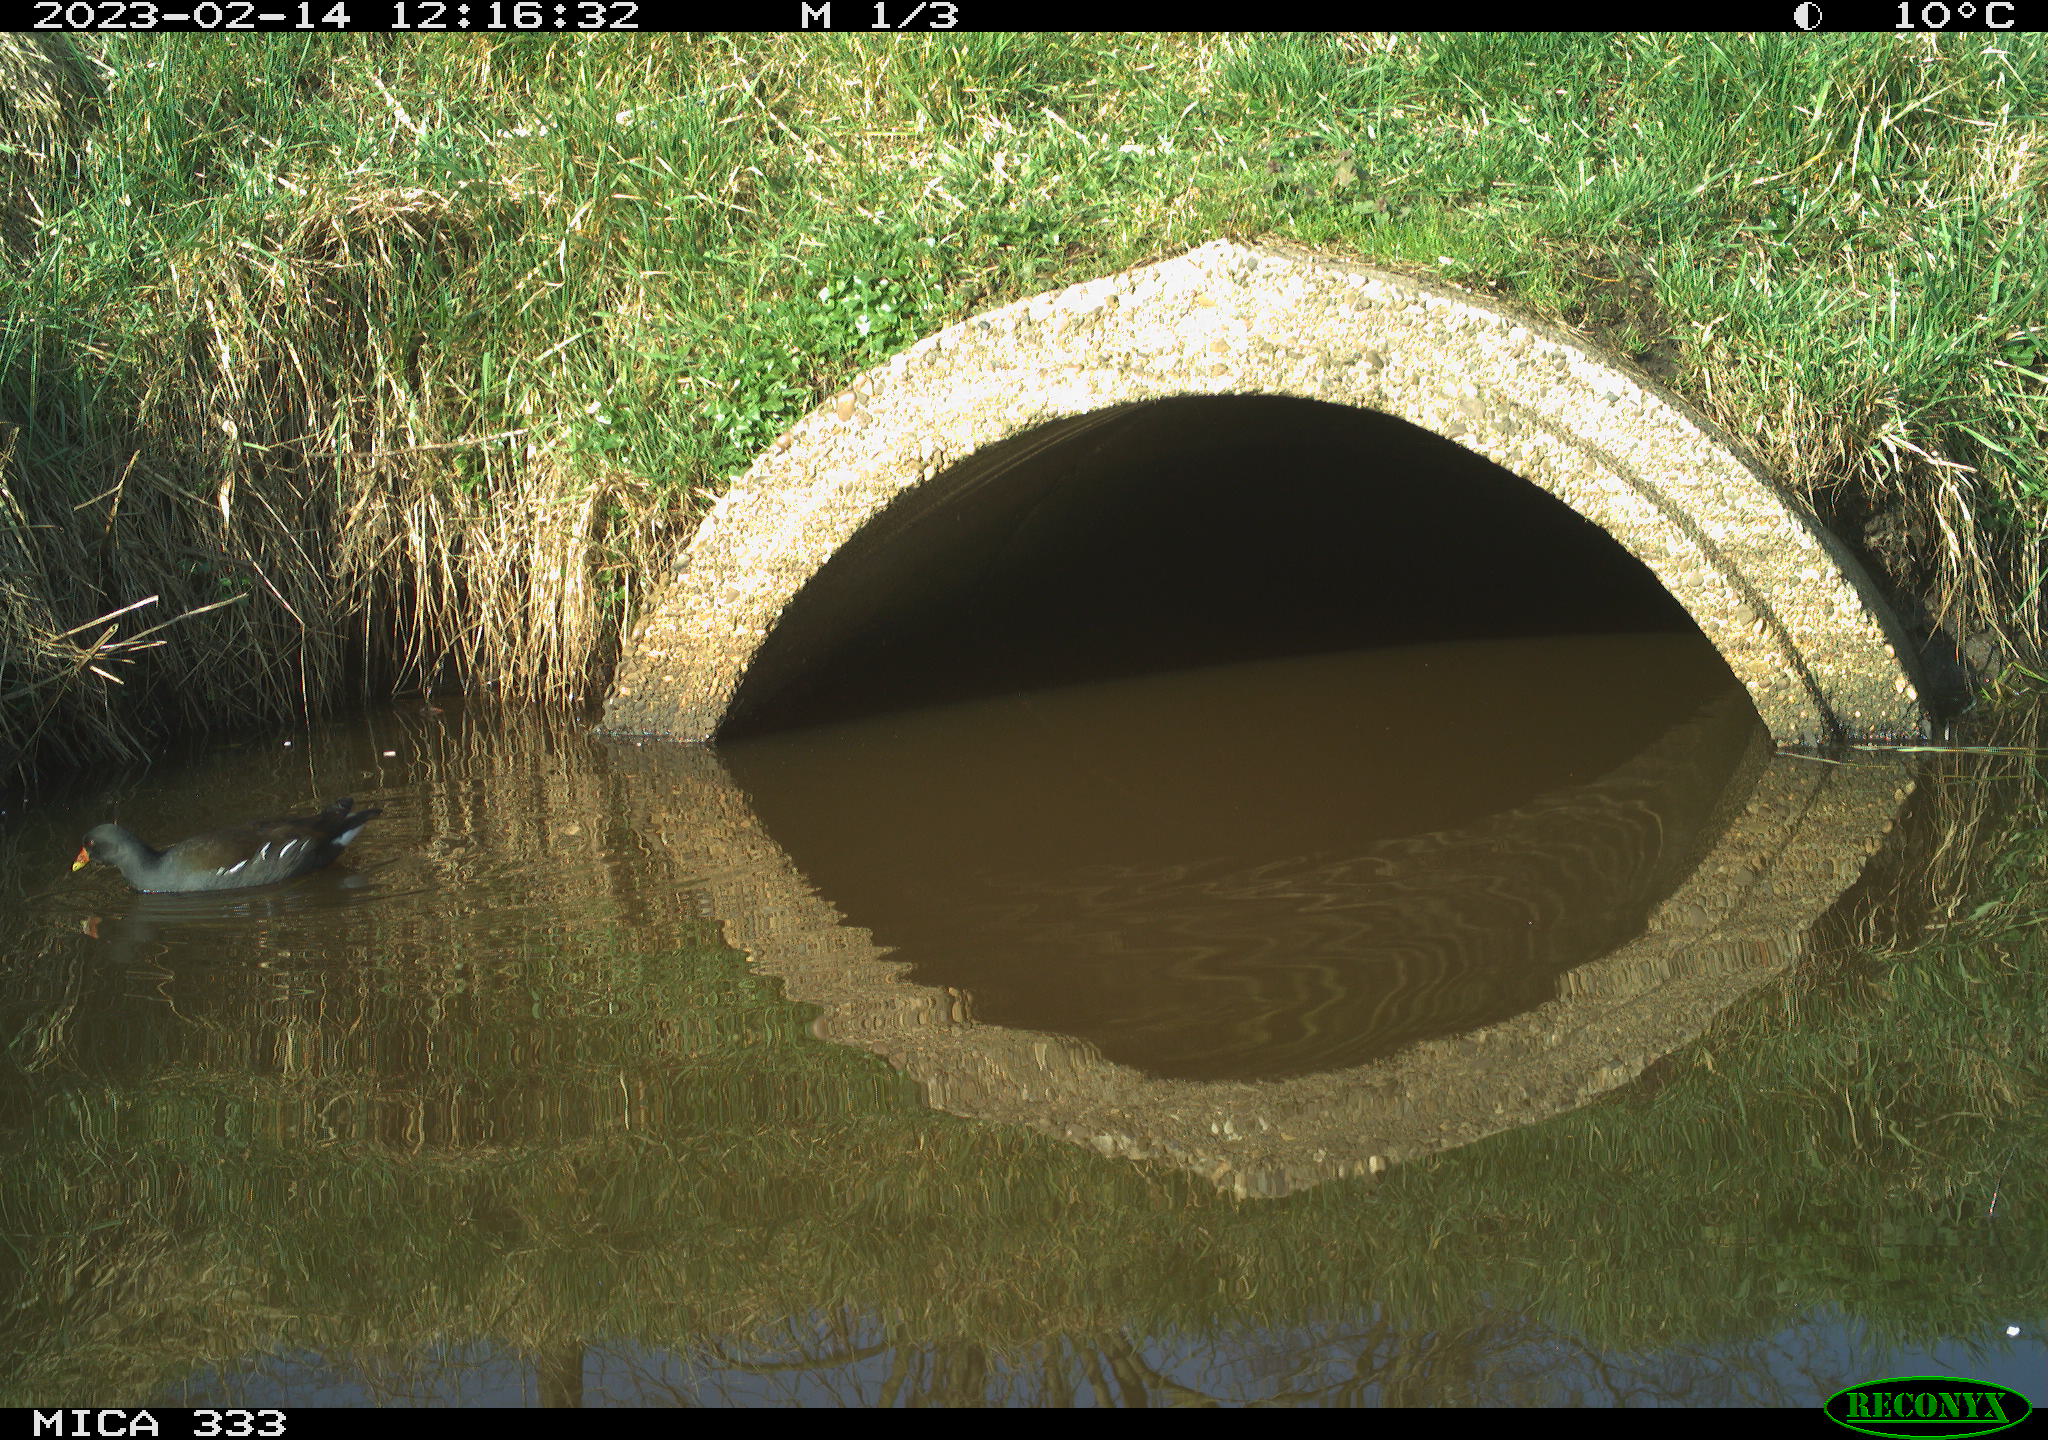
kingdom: Animalia
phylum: Chordata
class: Aves
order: Gruiformes
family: Rallidae
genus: Gallinula
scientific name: Gallinula chloropus
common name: Common moorhen
